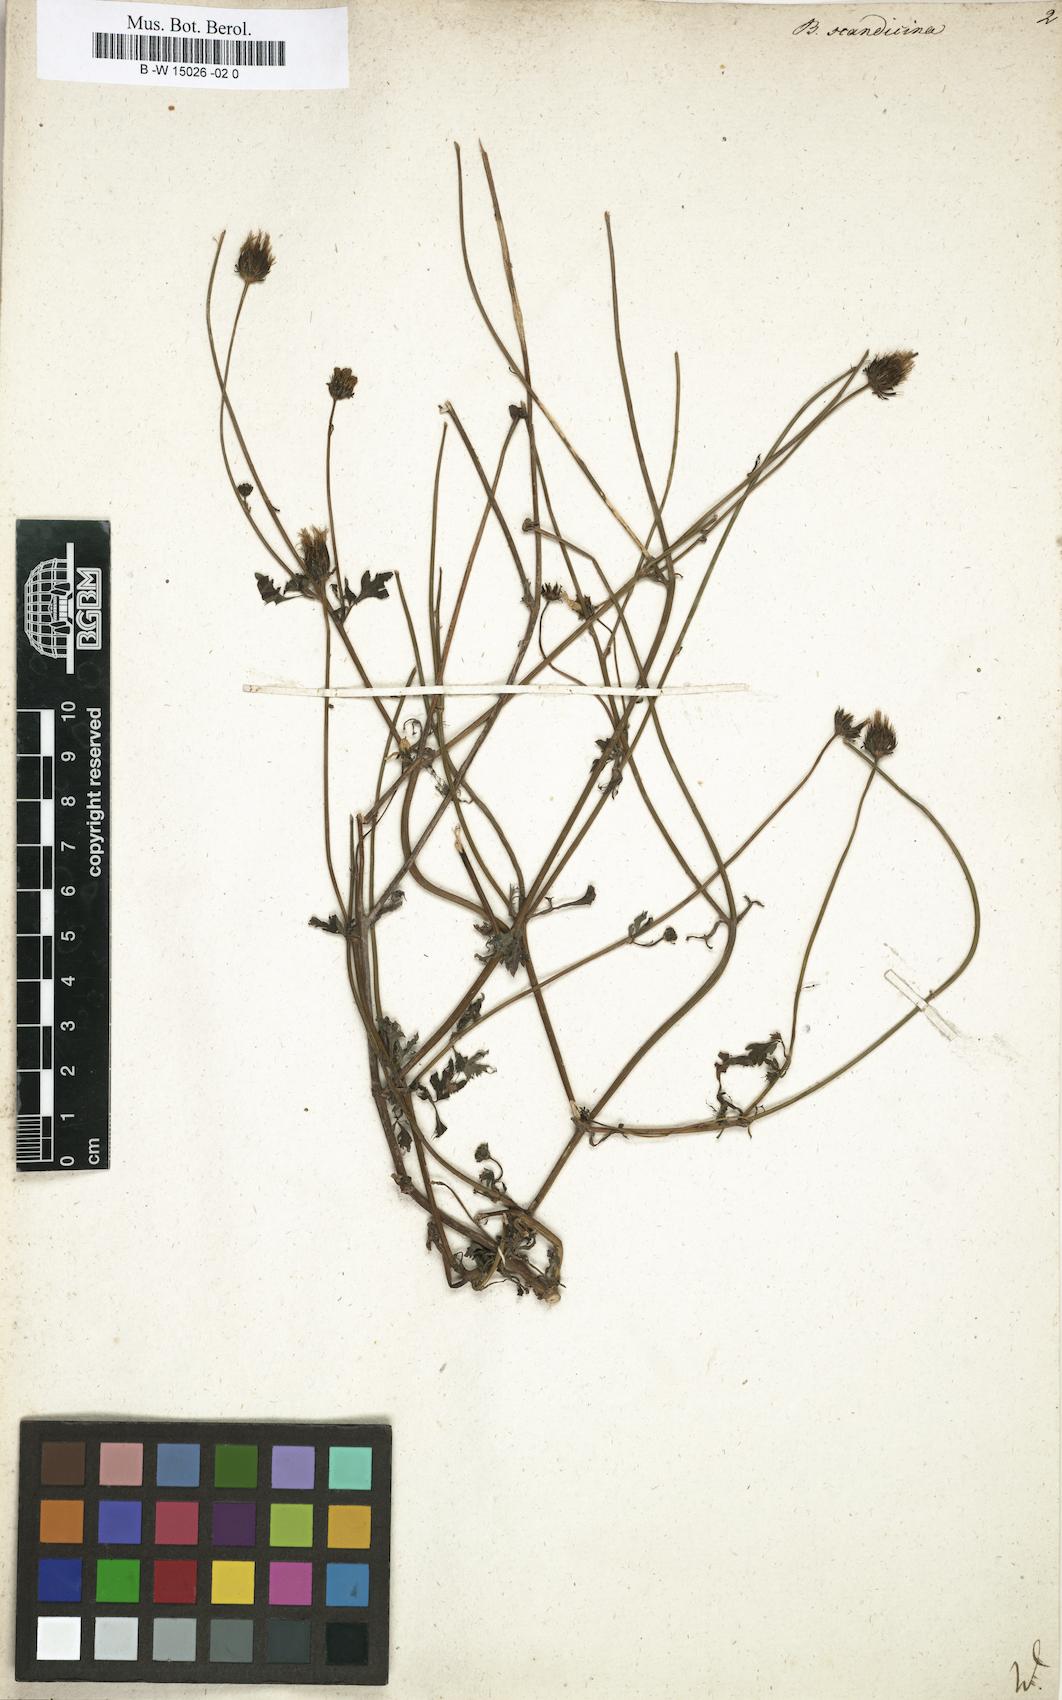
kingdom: Plantae
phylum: Tracheophyta
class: Magnoliopsida
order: Asterales
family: Asteraceae
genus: Bidens
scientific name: Bidens pilosa
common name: Black-jack
